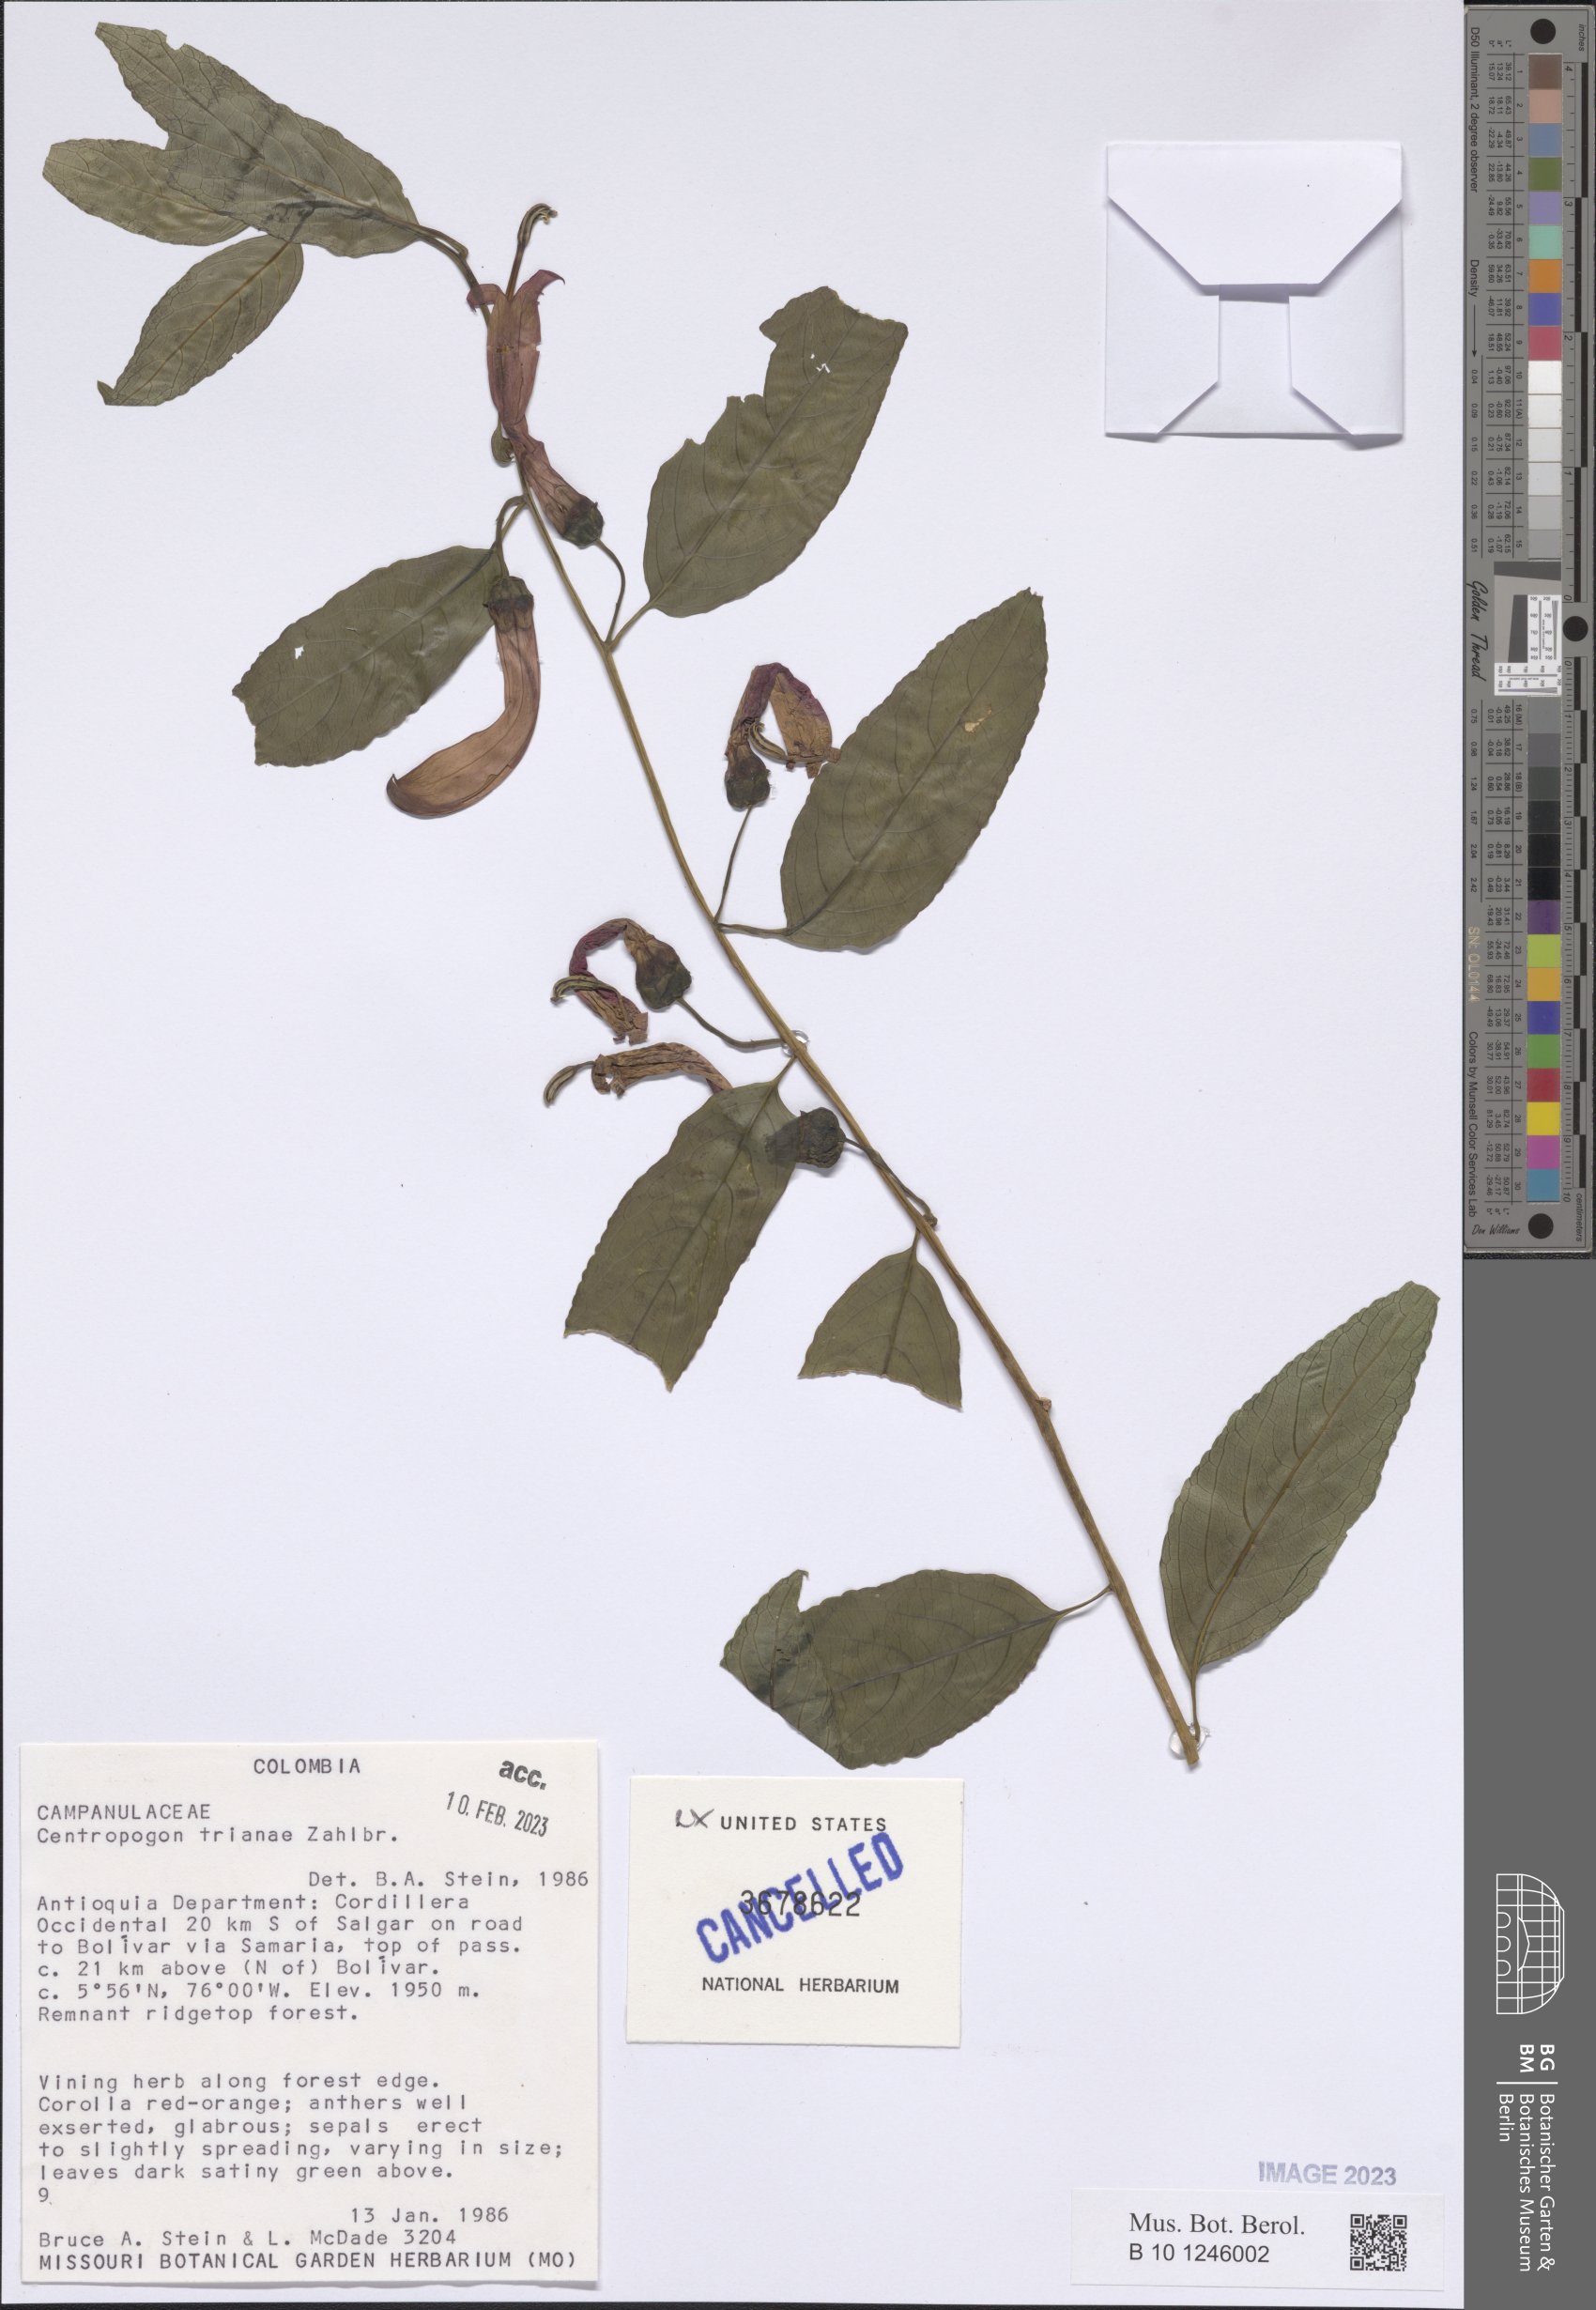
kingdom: Plantae
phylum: Tracheophyta
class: Magnoliopsida
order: Asterales
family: Campanulaceae
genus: Centropogon
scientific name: Centropogon trianae
